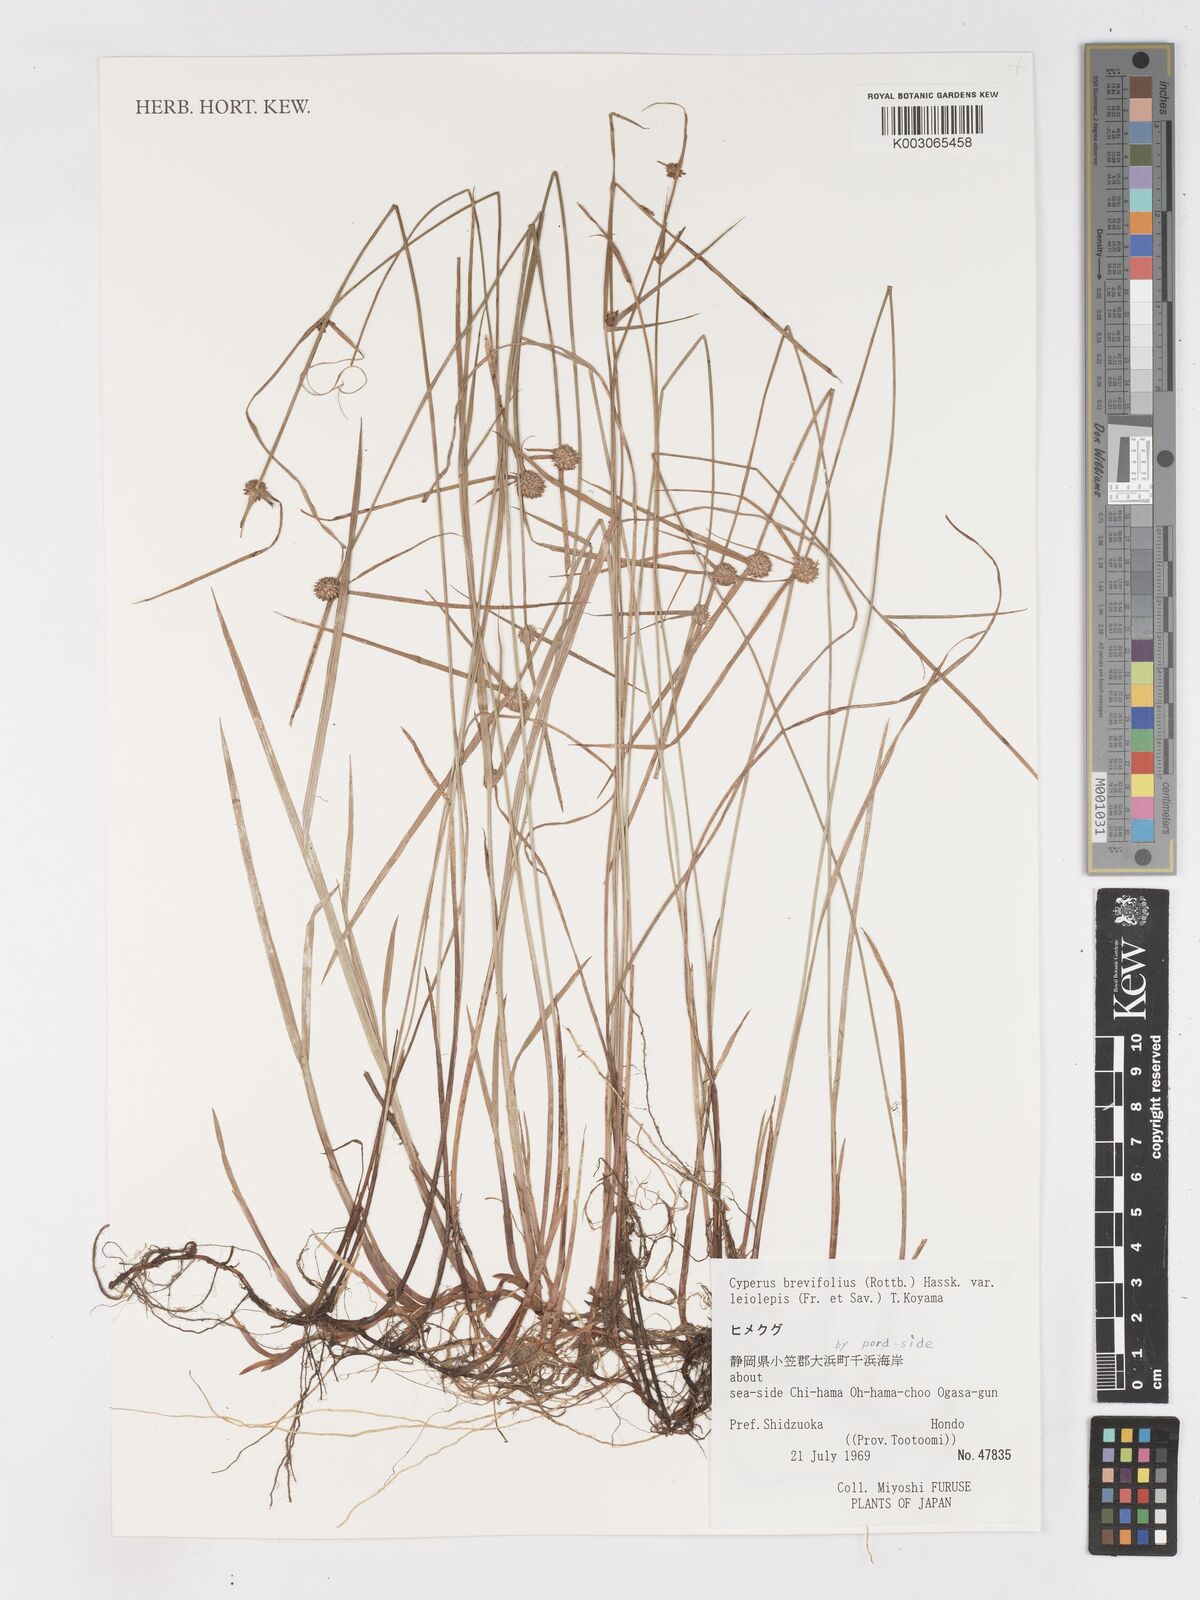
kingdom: Plantae
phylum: Tracheophyta
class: Liliopsida
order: Poales
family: Cyperaceae
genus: Cyperus
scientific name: Cyperus brevifolius
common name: Globe kyllinga
